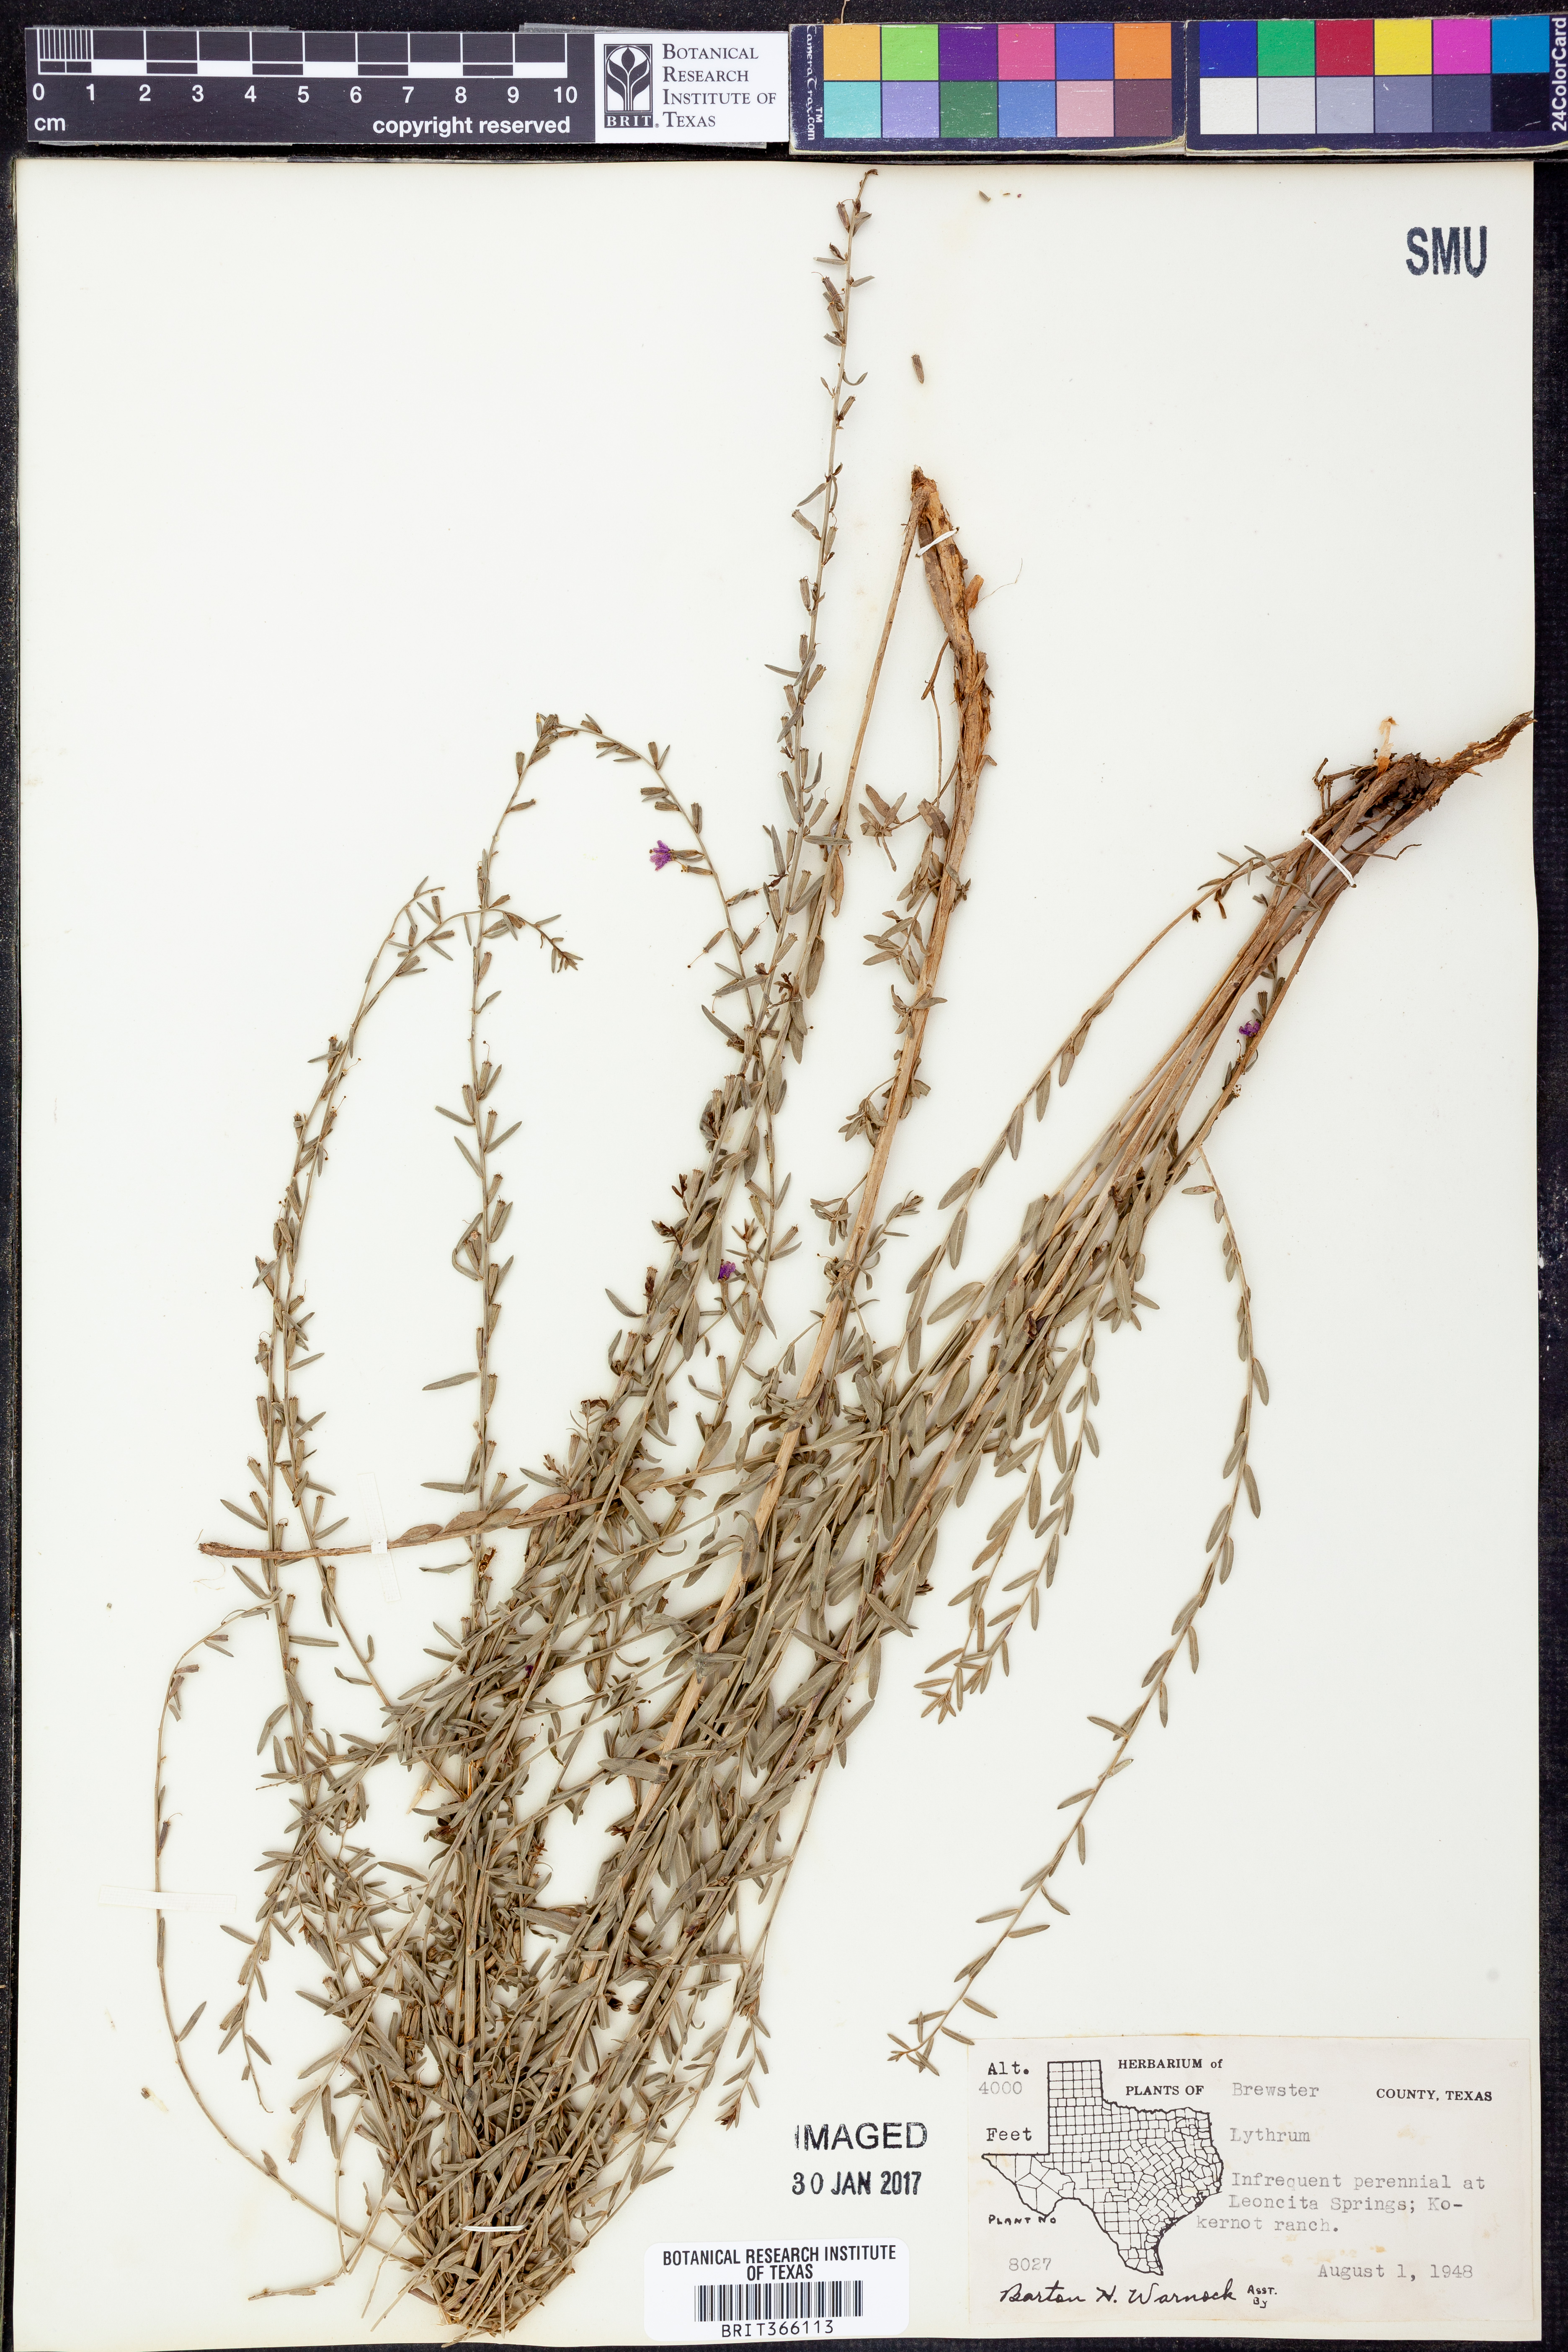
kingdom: Plantae
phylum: Tracheophyta
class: Magnoliopsida
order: Myrtales
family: Lythraceae
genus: Lythrum
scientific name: Lythrum
